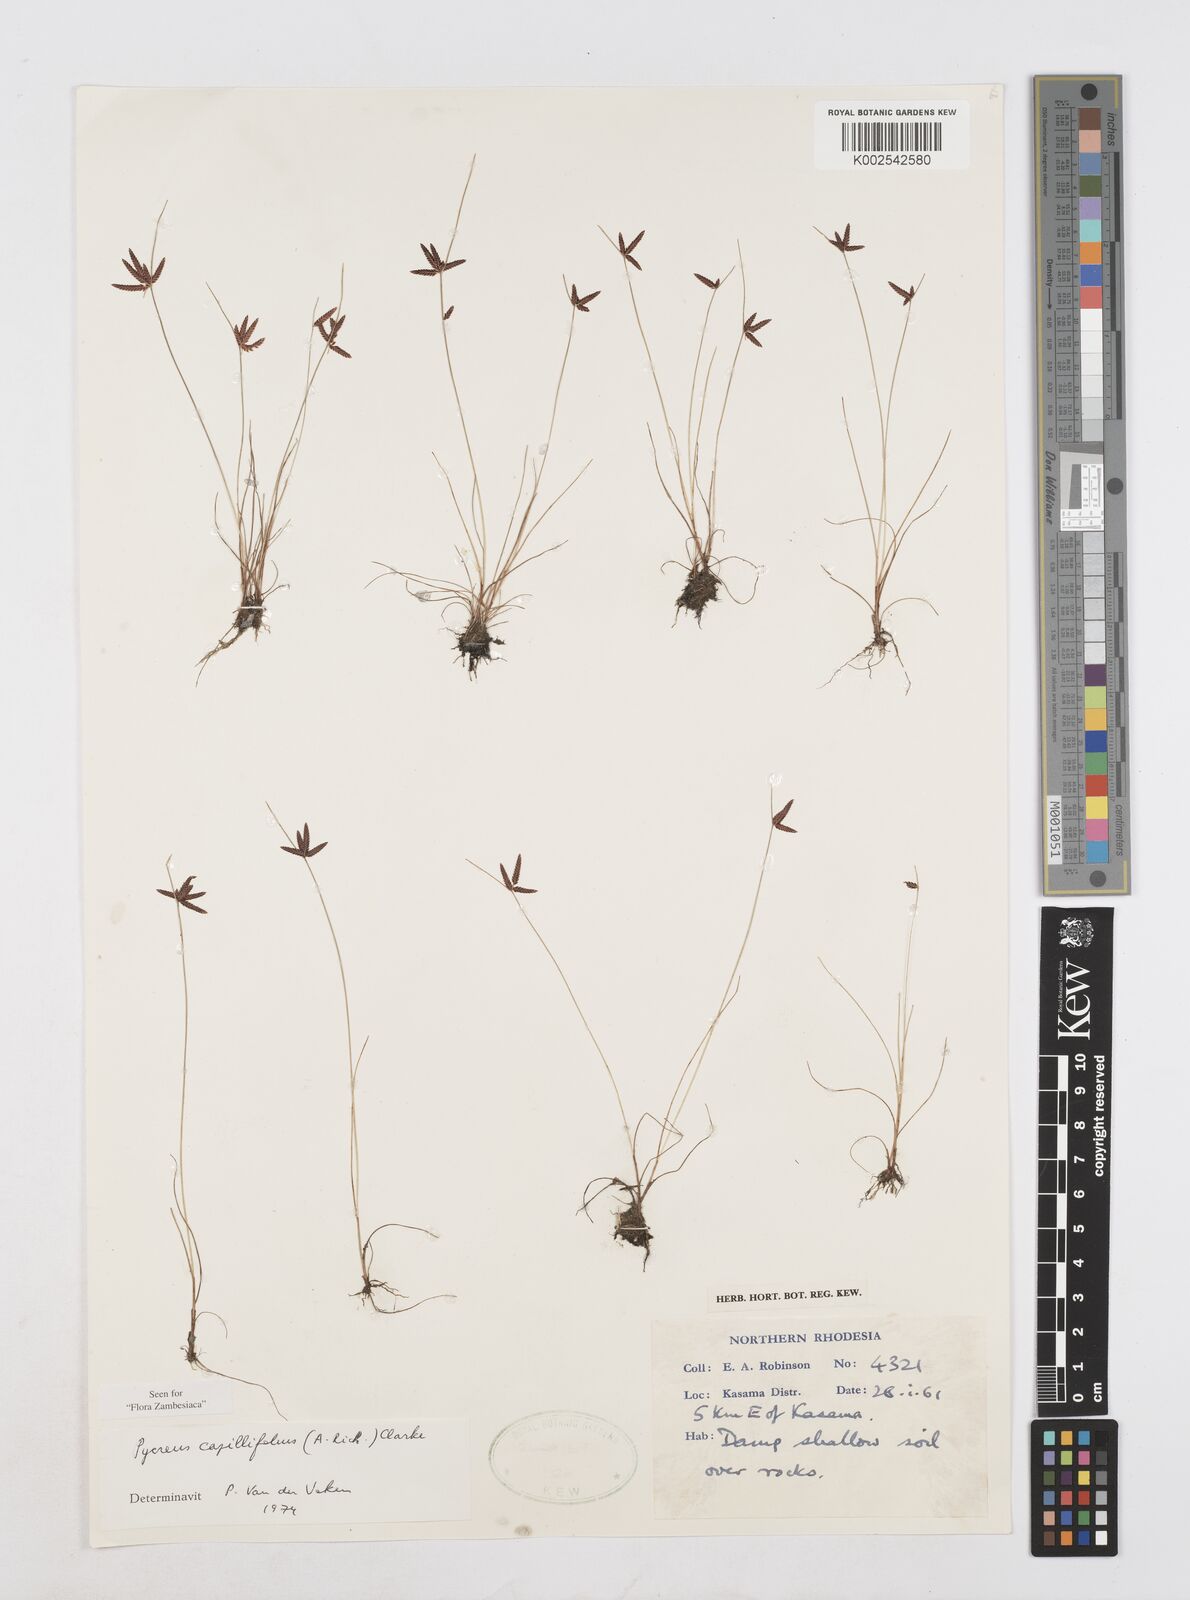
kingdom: Plantae
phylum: Tracheophyta
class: Liliopsida
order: Poales
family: Cyperaceae
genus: Cyperus
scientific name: Cyperus capillifolius
